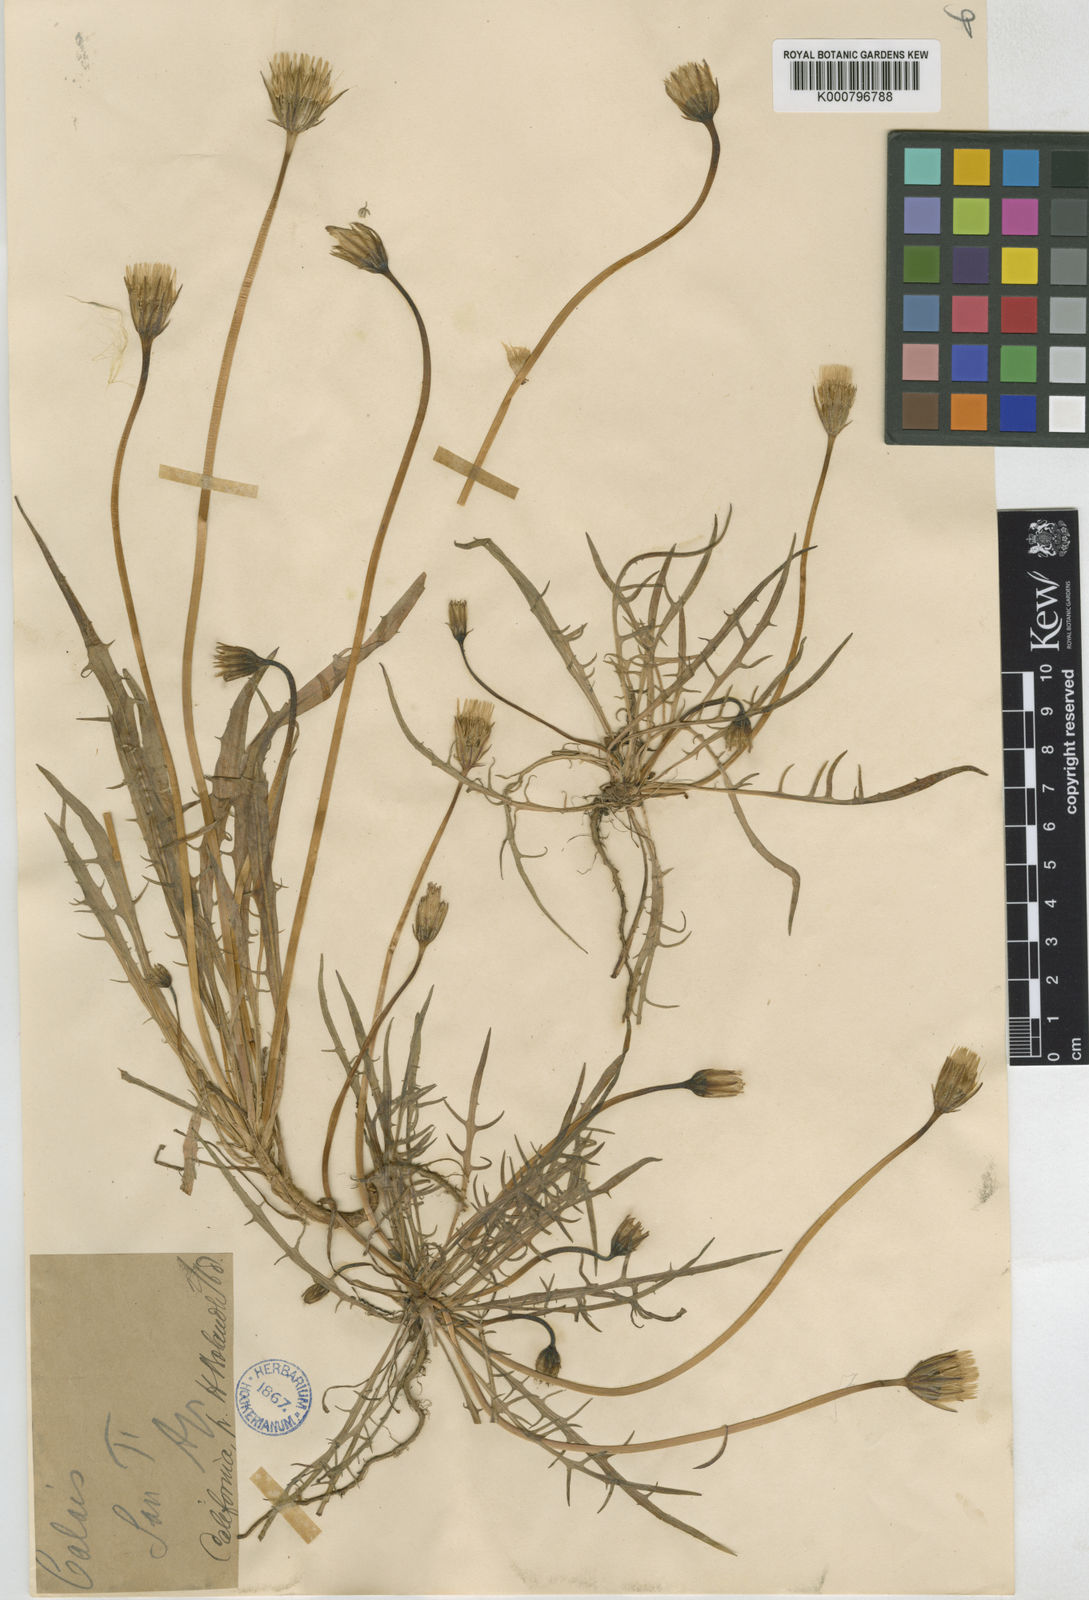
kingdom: Plantae
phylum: Tracheophyta
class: Magnoliopsida
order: Asterales
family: Asteraceae
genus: Microseris
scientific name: Microseris laciniata
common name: Cut-leaf microseris
